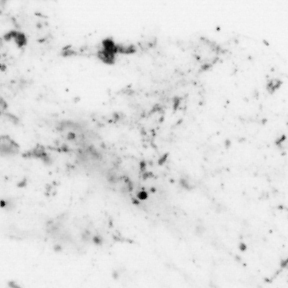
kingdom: Animalia
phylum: Chordata
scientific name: Chordata
